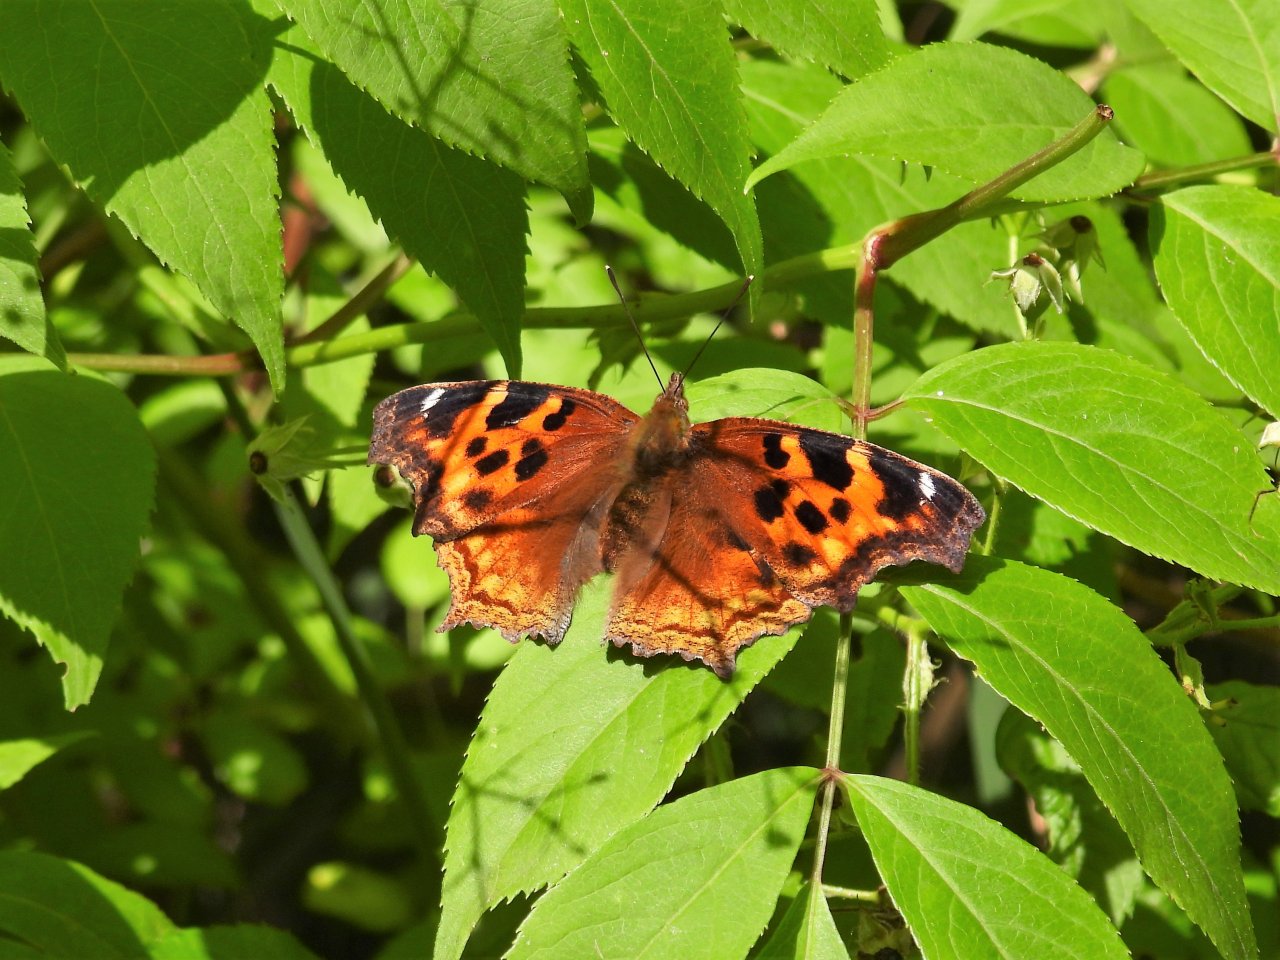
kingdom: Animalia
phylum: Arthropoda
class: Insecta
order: Lepidoptera
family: Nymphalidae
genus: Polygonia
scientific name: Polygonia vaualbum
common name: Compton Tortoiseshell
